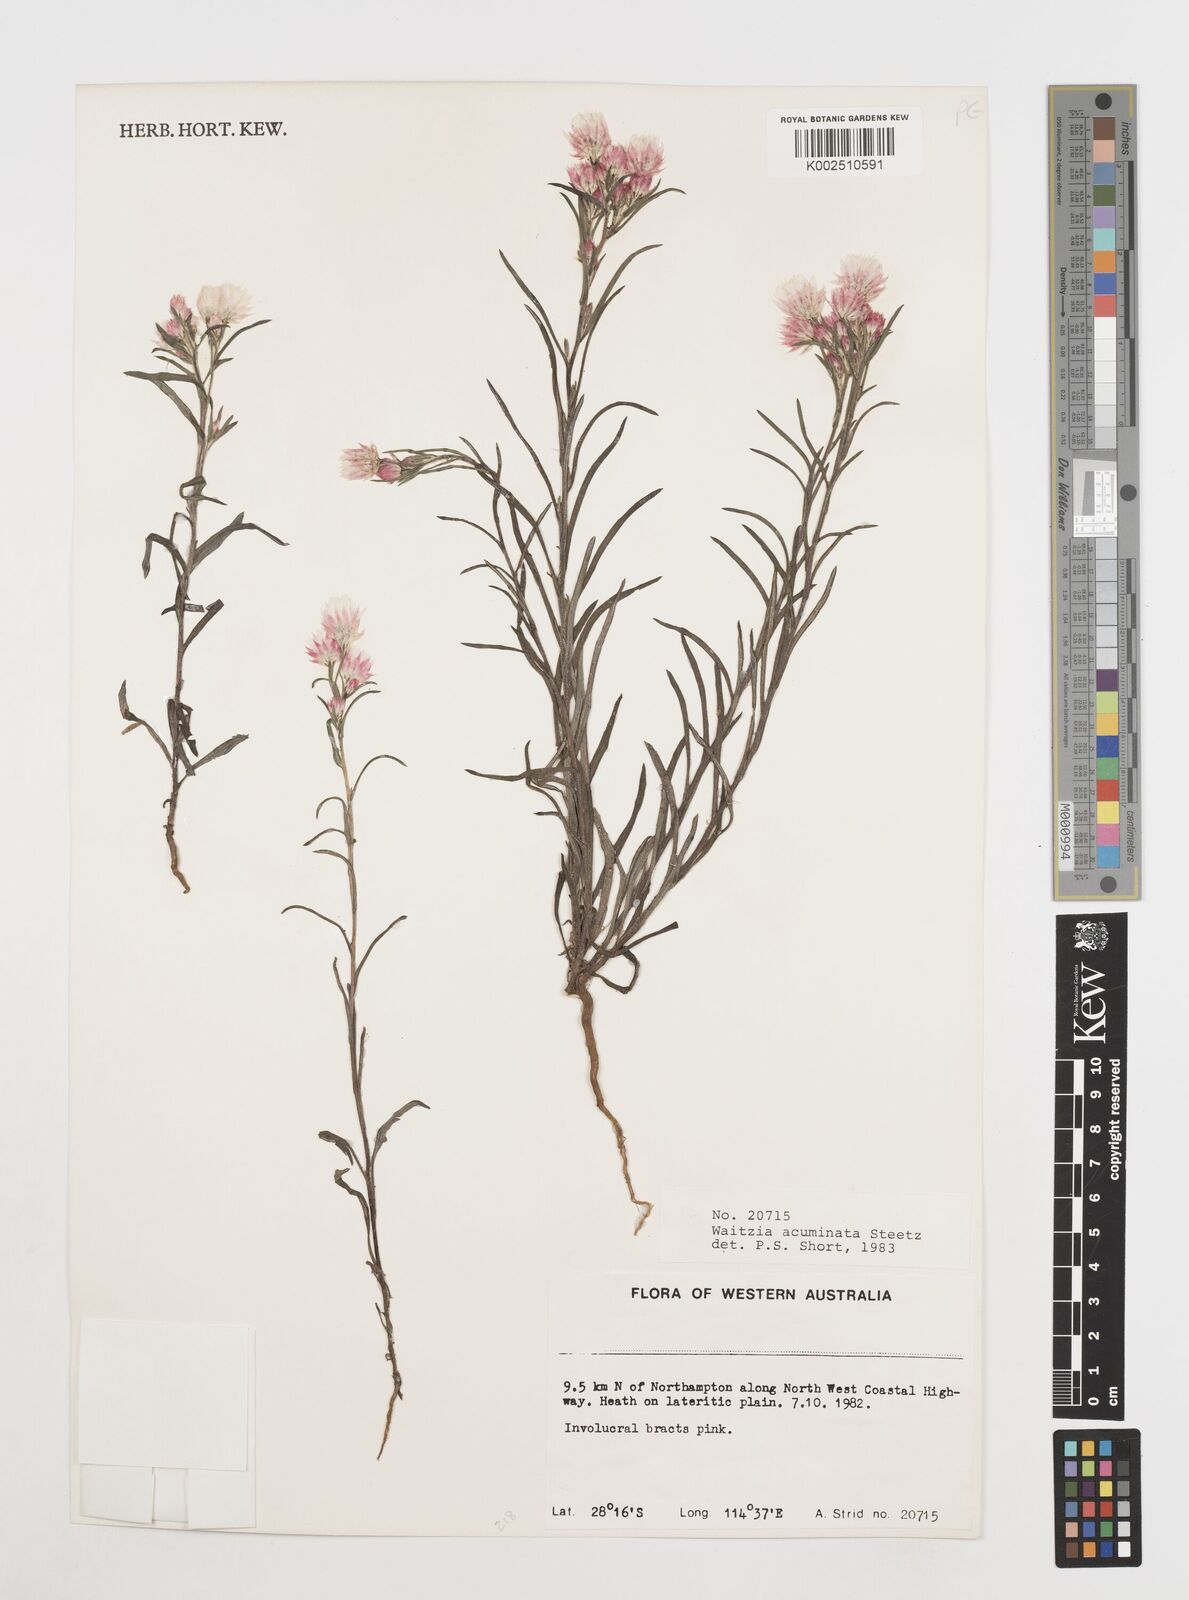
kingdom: Plantae
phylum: Tracheophyta
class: Magnoliopsida
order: Asterales
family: Asteraceae
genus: Waitzia
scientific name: Waitzia acuminata
